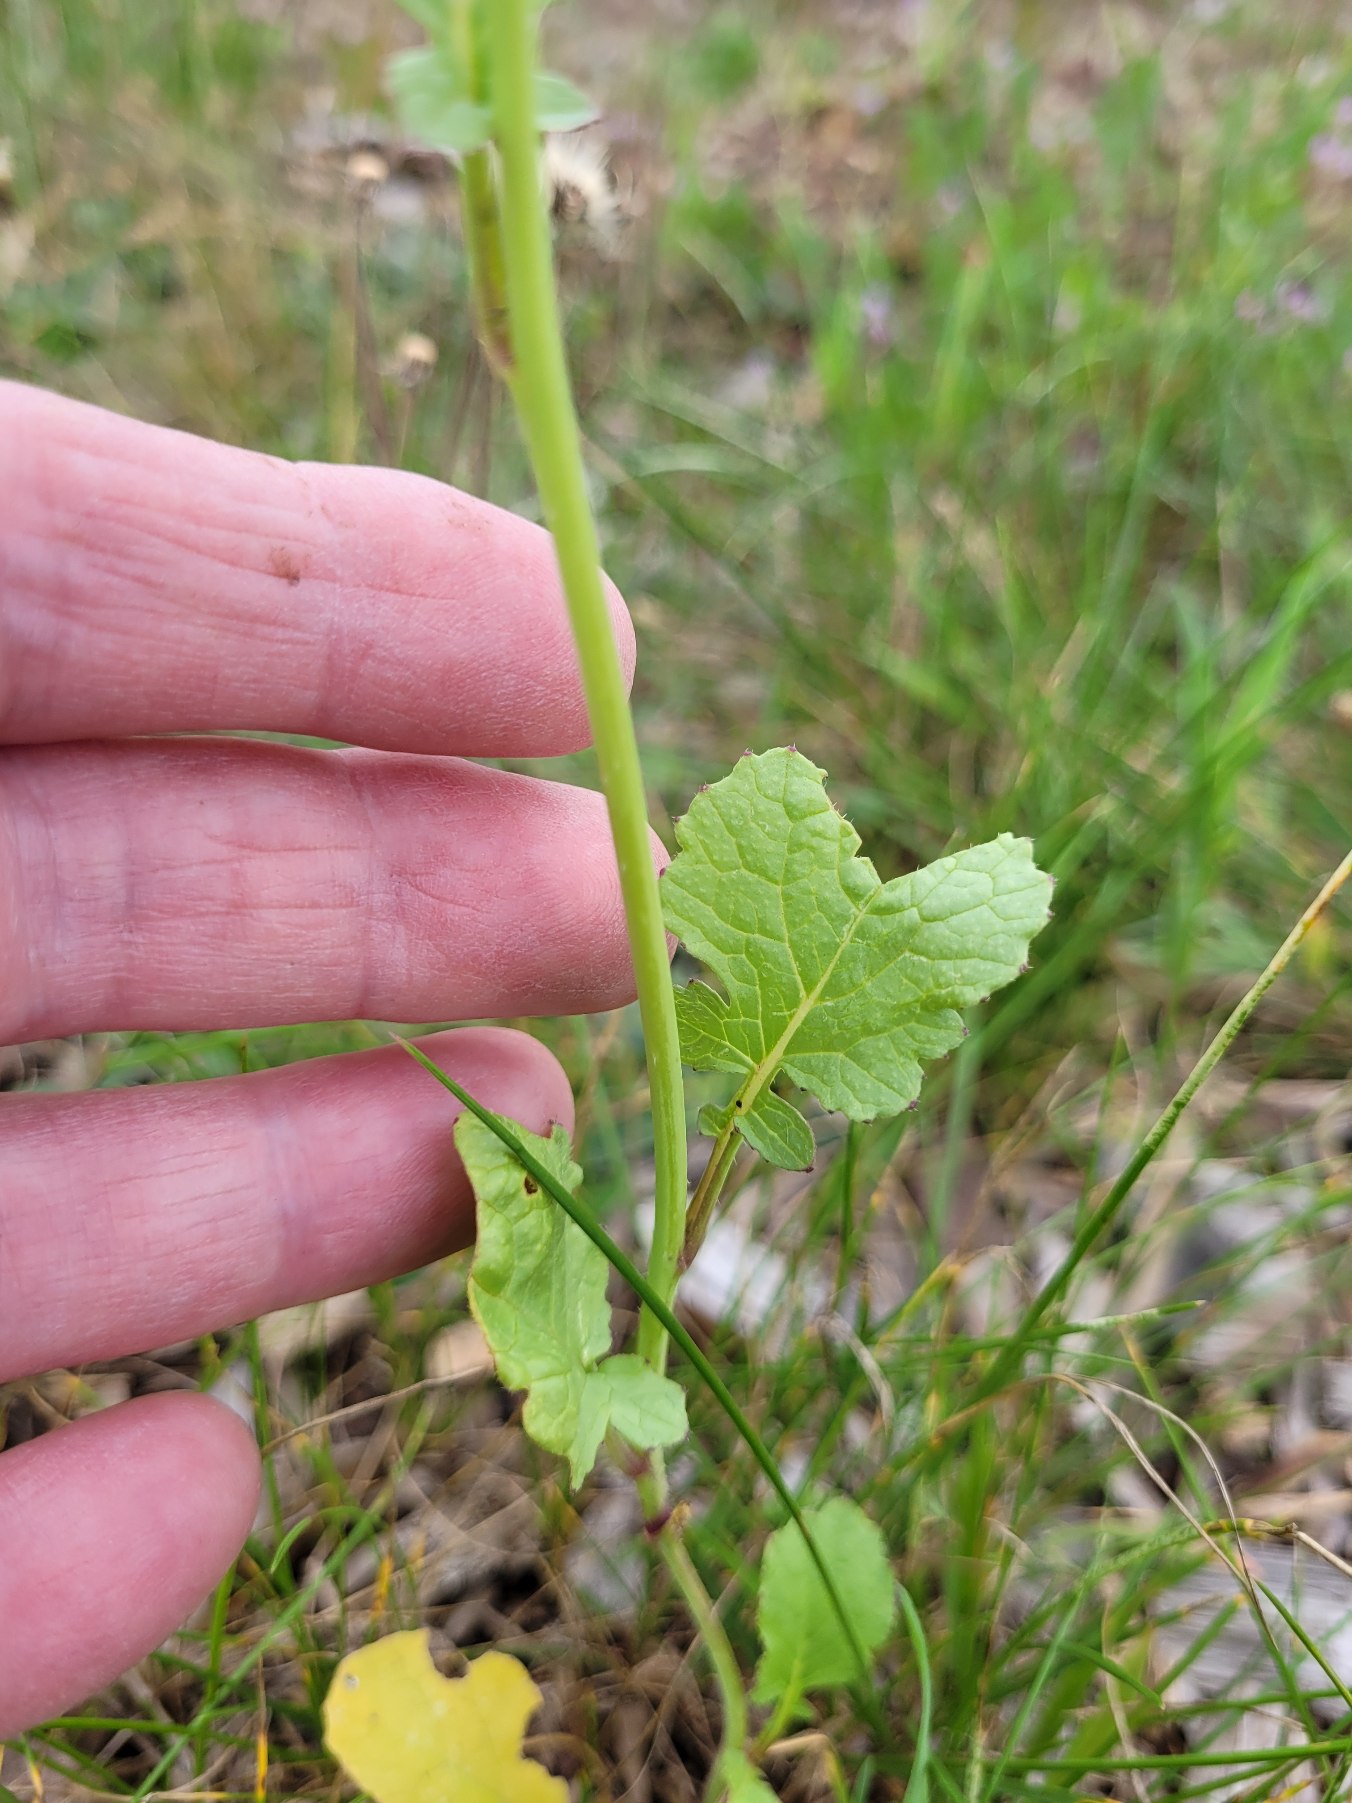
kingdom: Plantae
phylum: Tracheophyta
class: Magnoliopsida
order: Brassicales
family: Brassicaceae
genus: Raphanus
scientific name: Raphanus sativus
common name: Olie-ræddike
